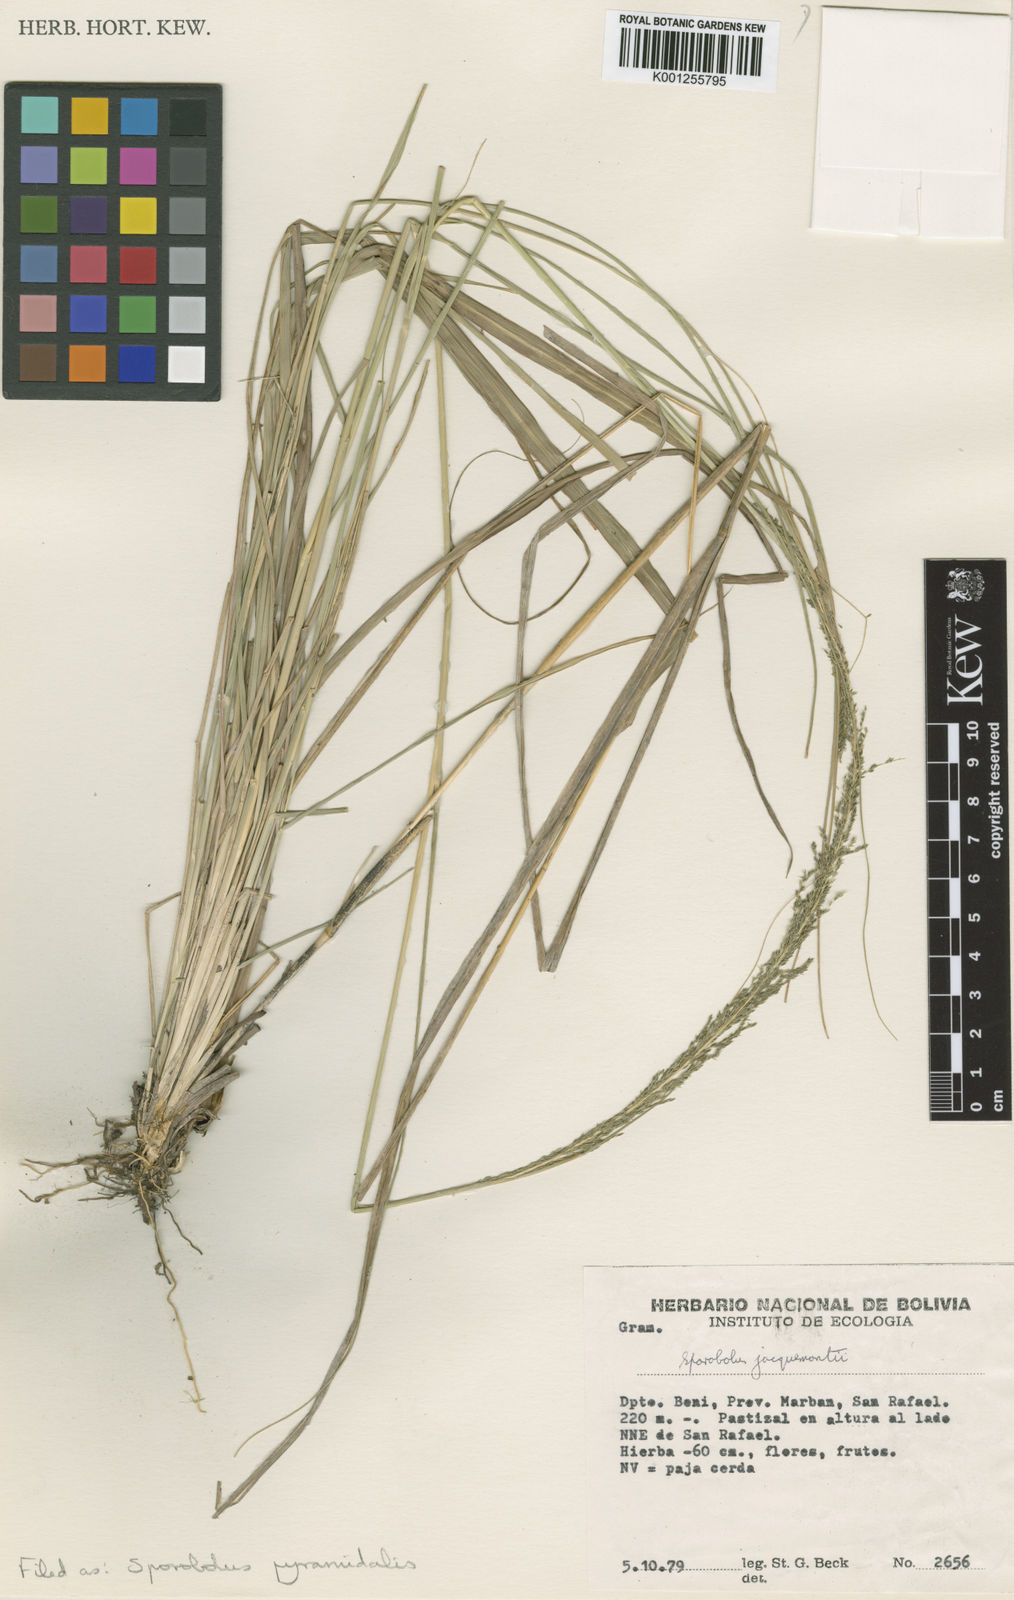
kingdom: Plantae
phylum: Tracheophyta
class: Liliopsida
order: Poales
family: Poaceae
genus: Sporobolus
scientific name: Sporobolus pyramidalis
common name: West indian dropseed
